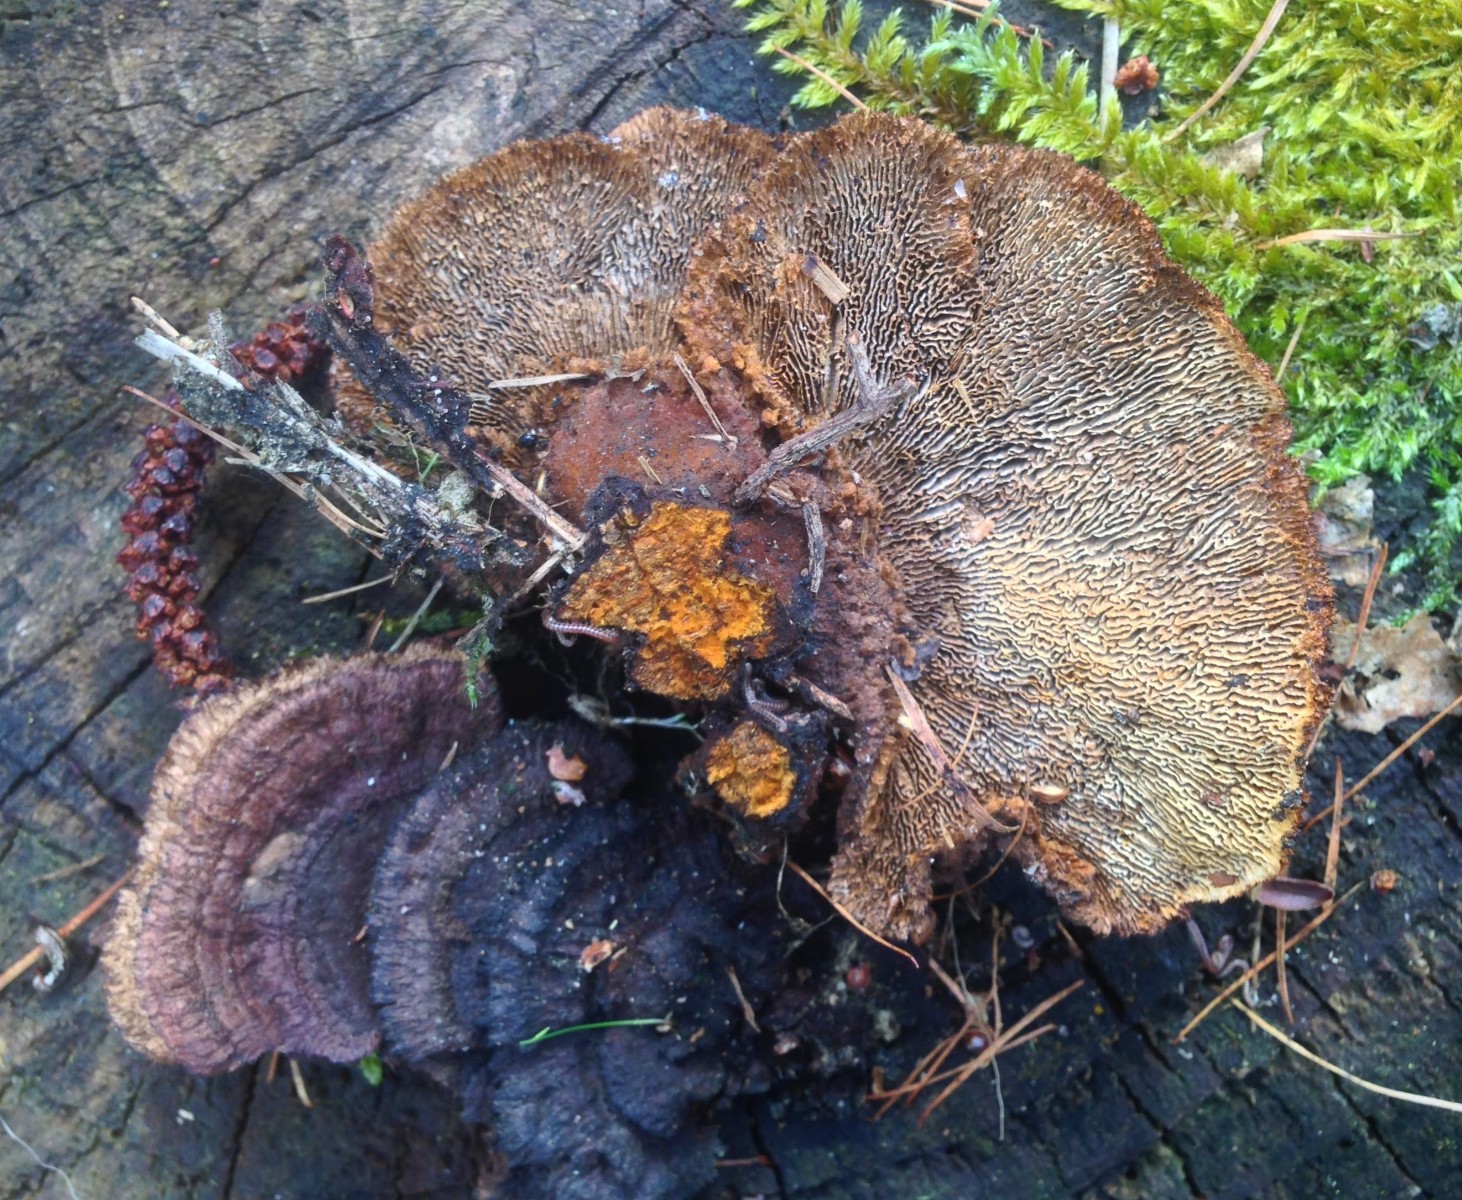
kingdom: Fungi
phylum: Basidiomycota
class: Agaricomycetes
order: Gloeophyllales
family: Gloeophyllaceae
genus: Gloeophyllum
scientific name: Gloeophyllum sepiarium
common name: fyrre-korkhat
